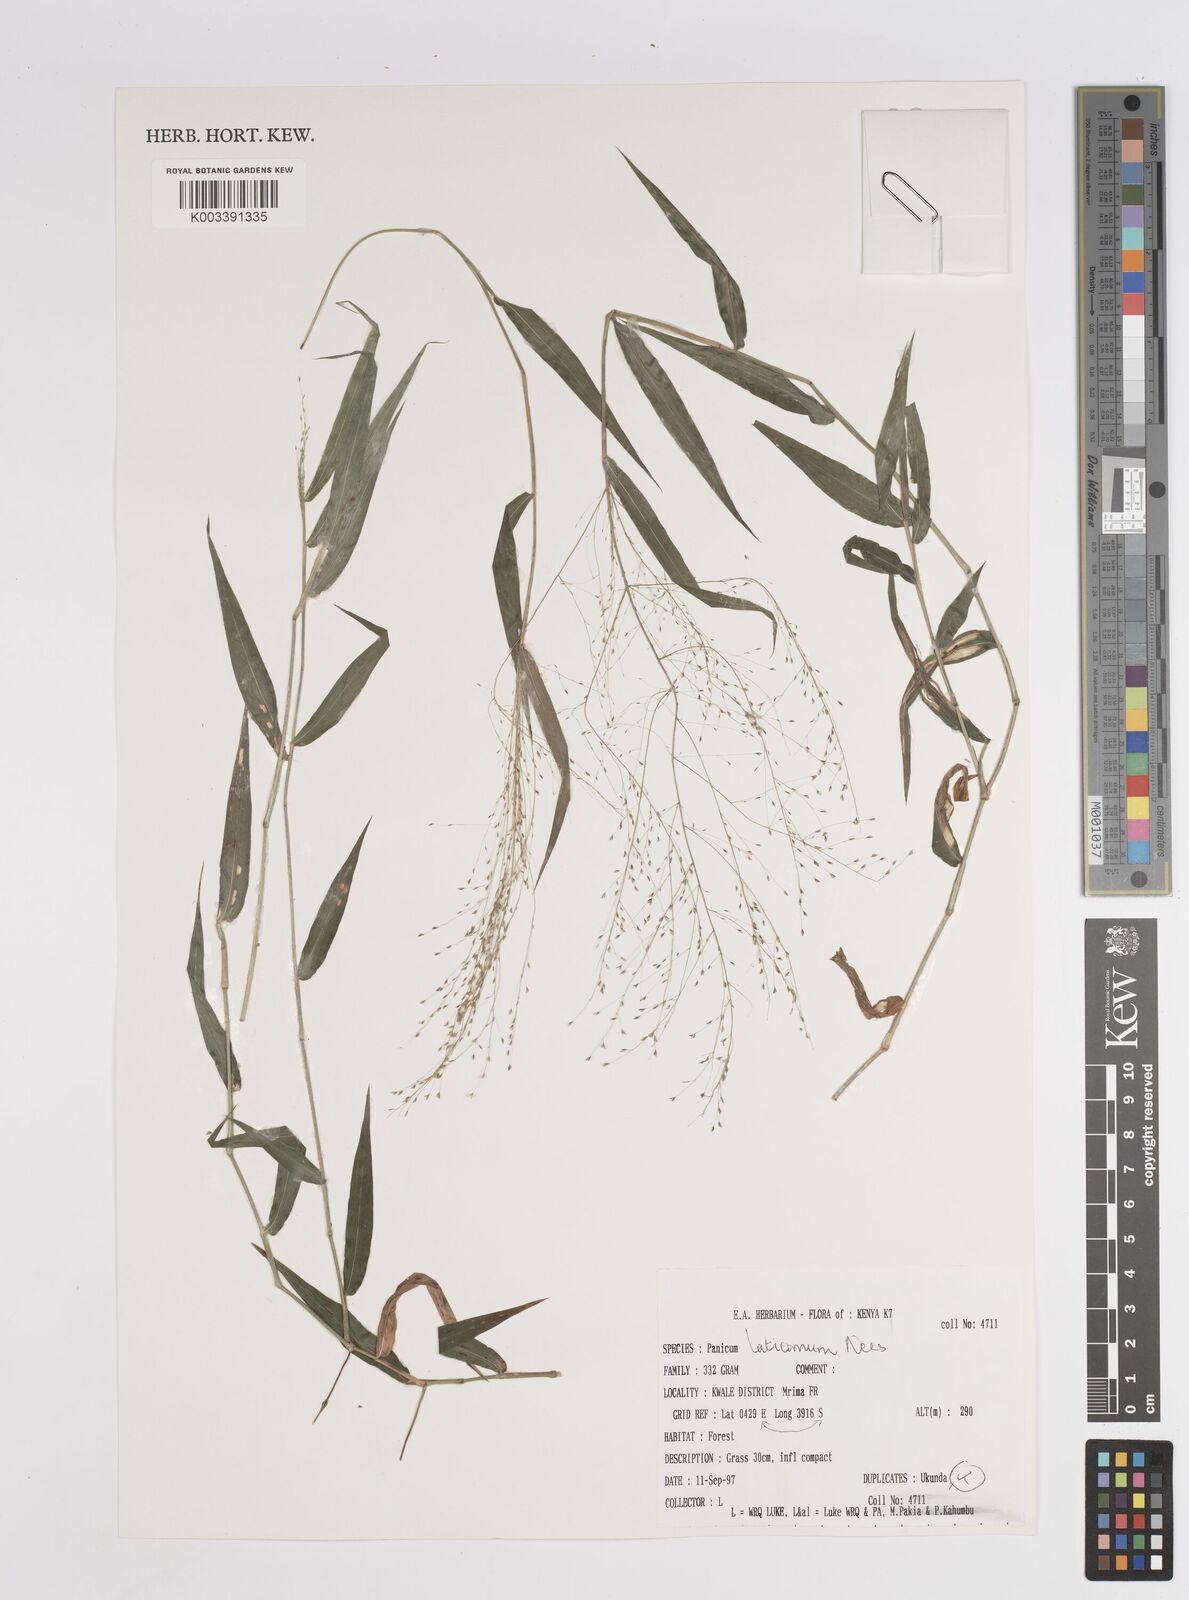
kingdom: Plantae
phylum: Tracheophyta
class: Liliopsida
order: Poales
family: Poaceae
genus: Panicum
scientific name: Panicum laticomum
